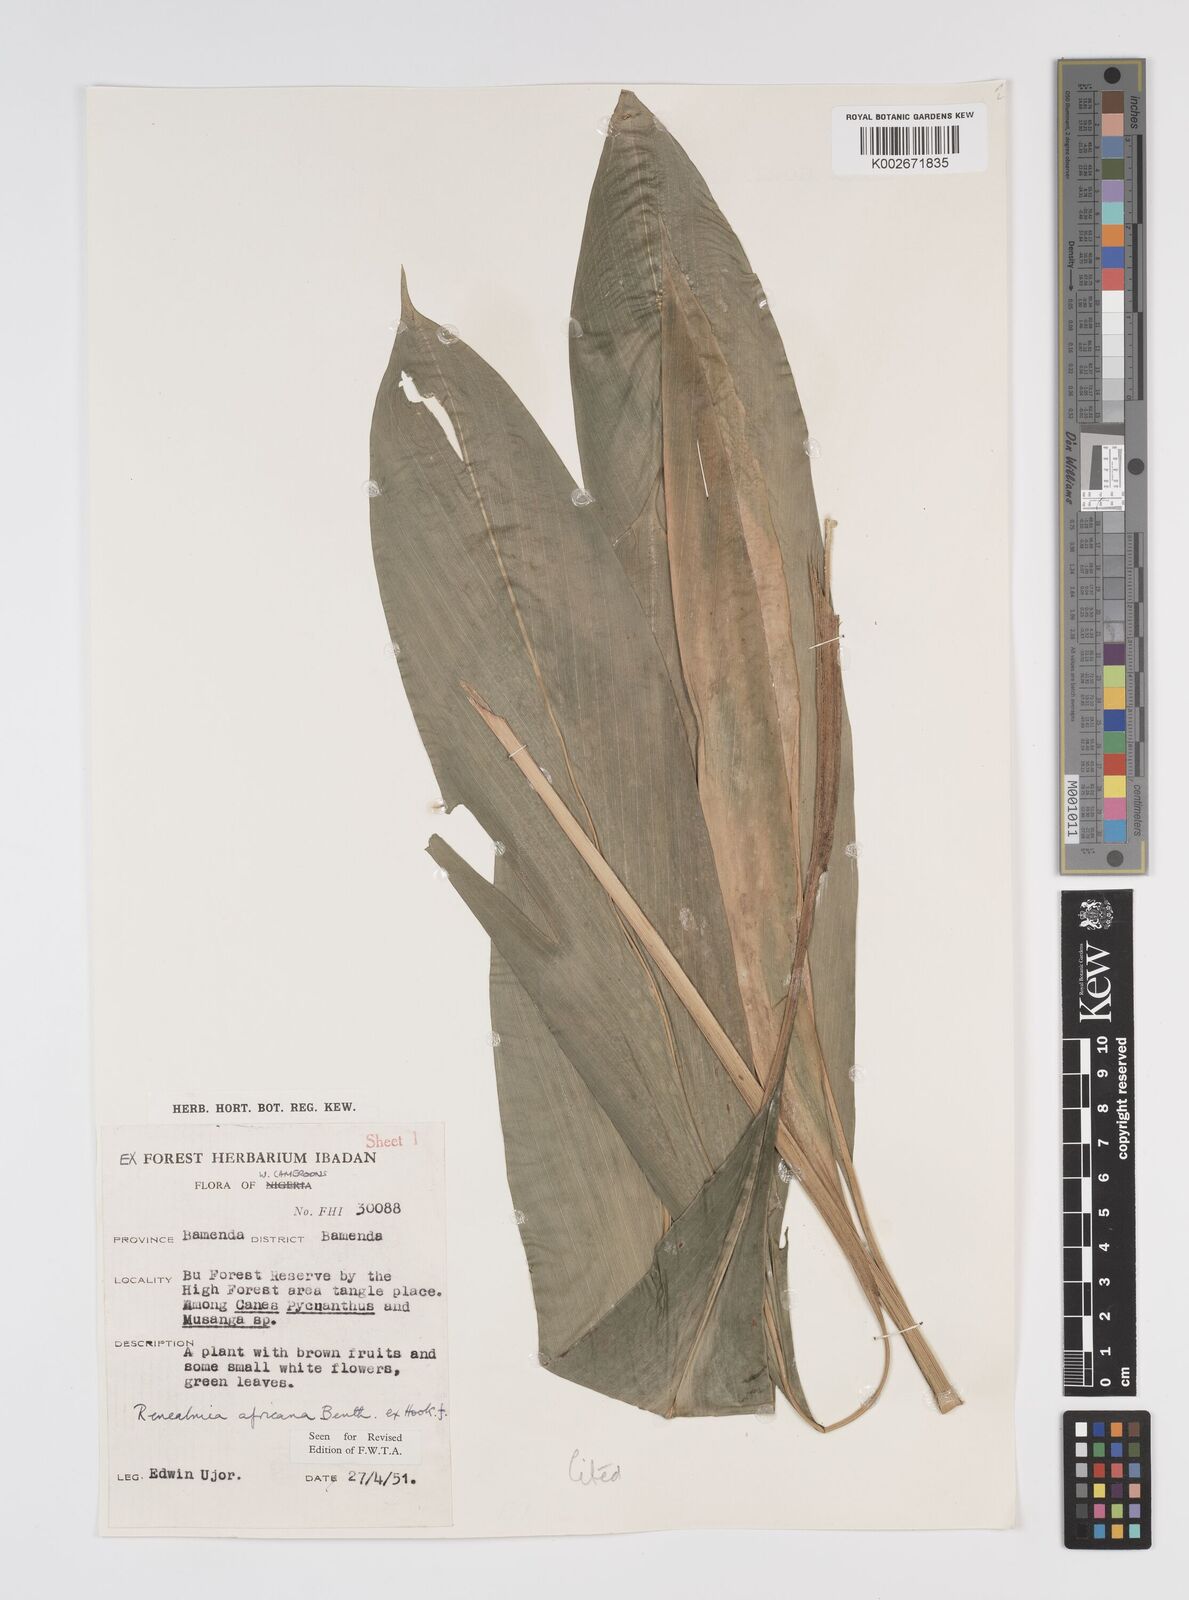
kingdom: Plantae
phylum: Tracheophyta
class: Liliopsida
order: Zingiberales
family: Zingiberaceae
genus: Renealmia
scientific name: Renealmia africana
